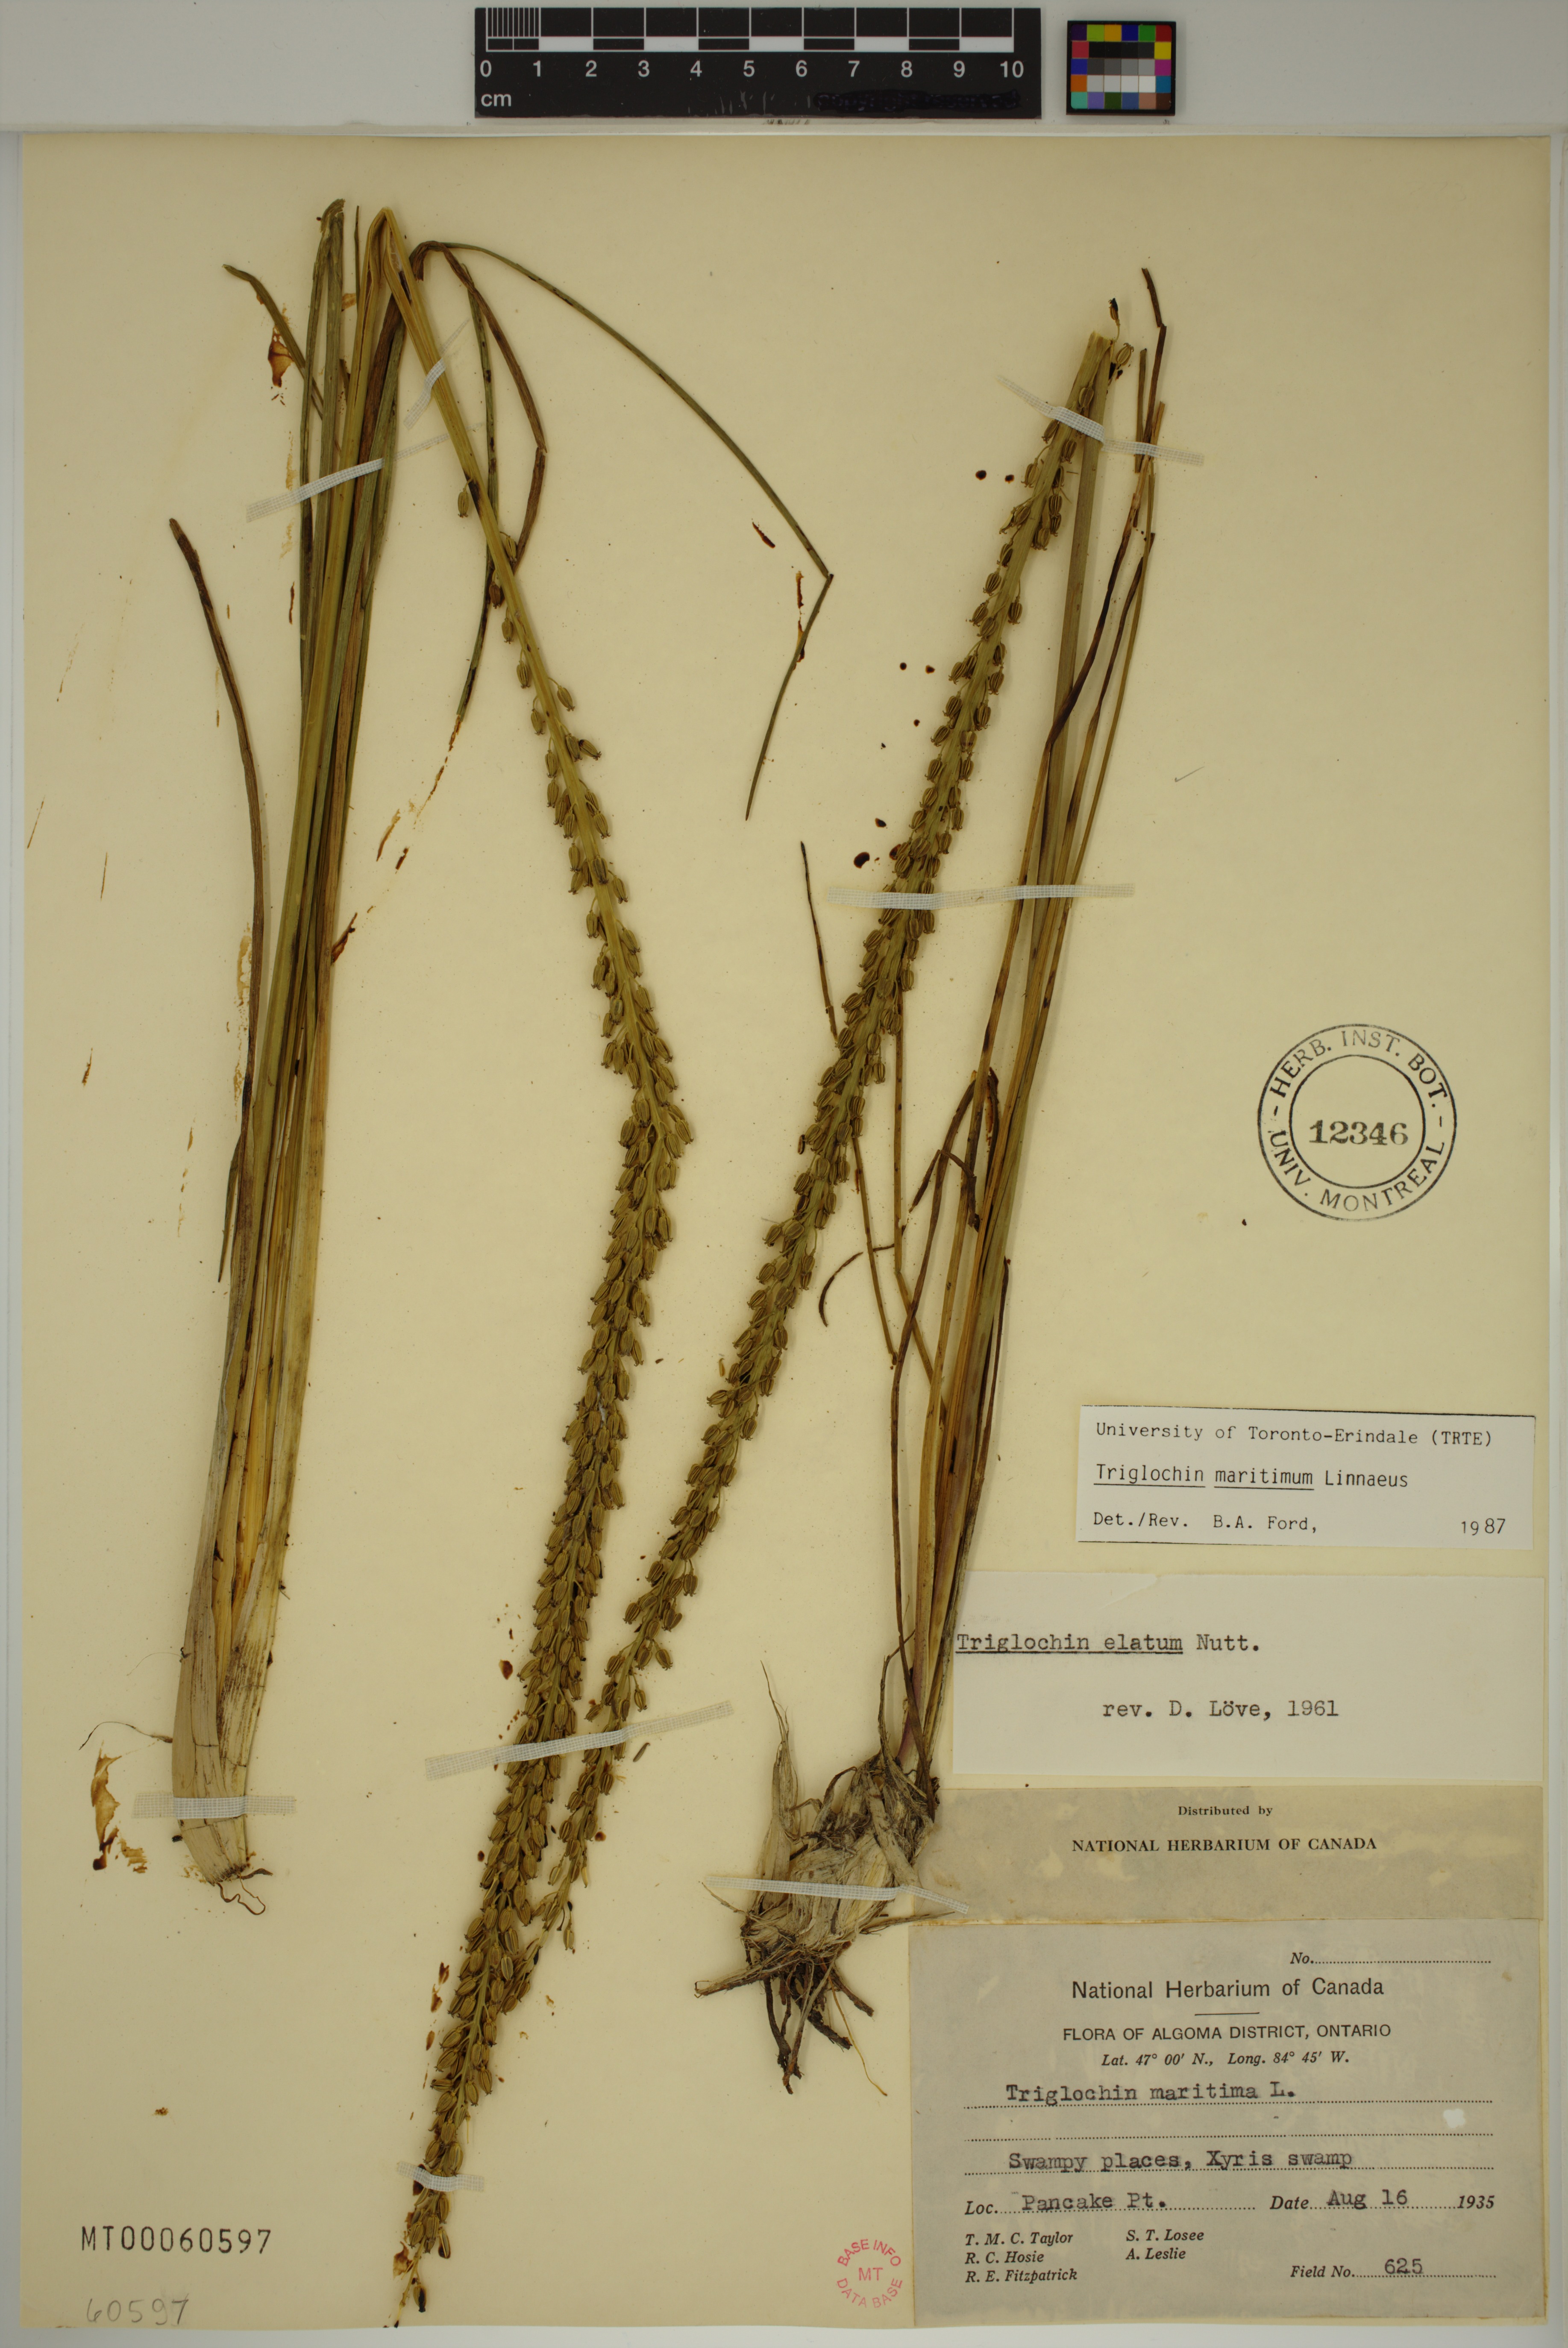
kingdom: Plantae
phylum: Tracheophyta
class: Liliopsida
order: Alismatales
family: Juncaginaceae
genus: Triglochin
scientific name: Triglochin maritima
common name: Sea arrowgrass
